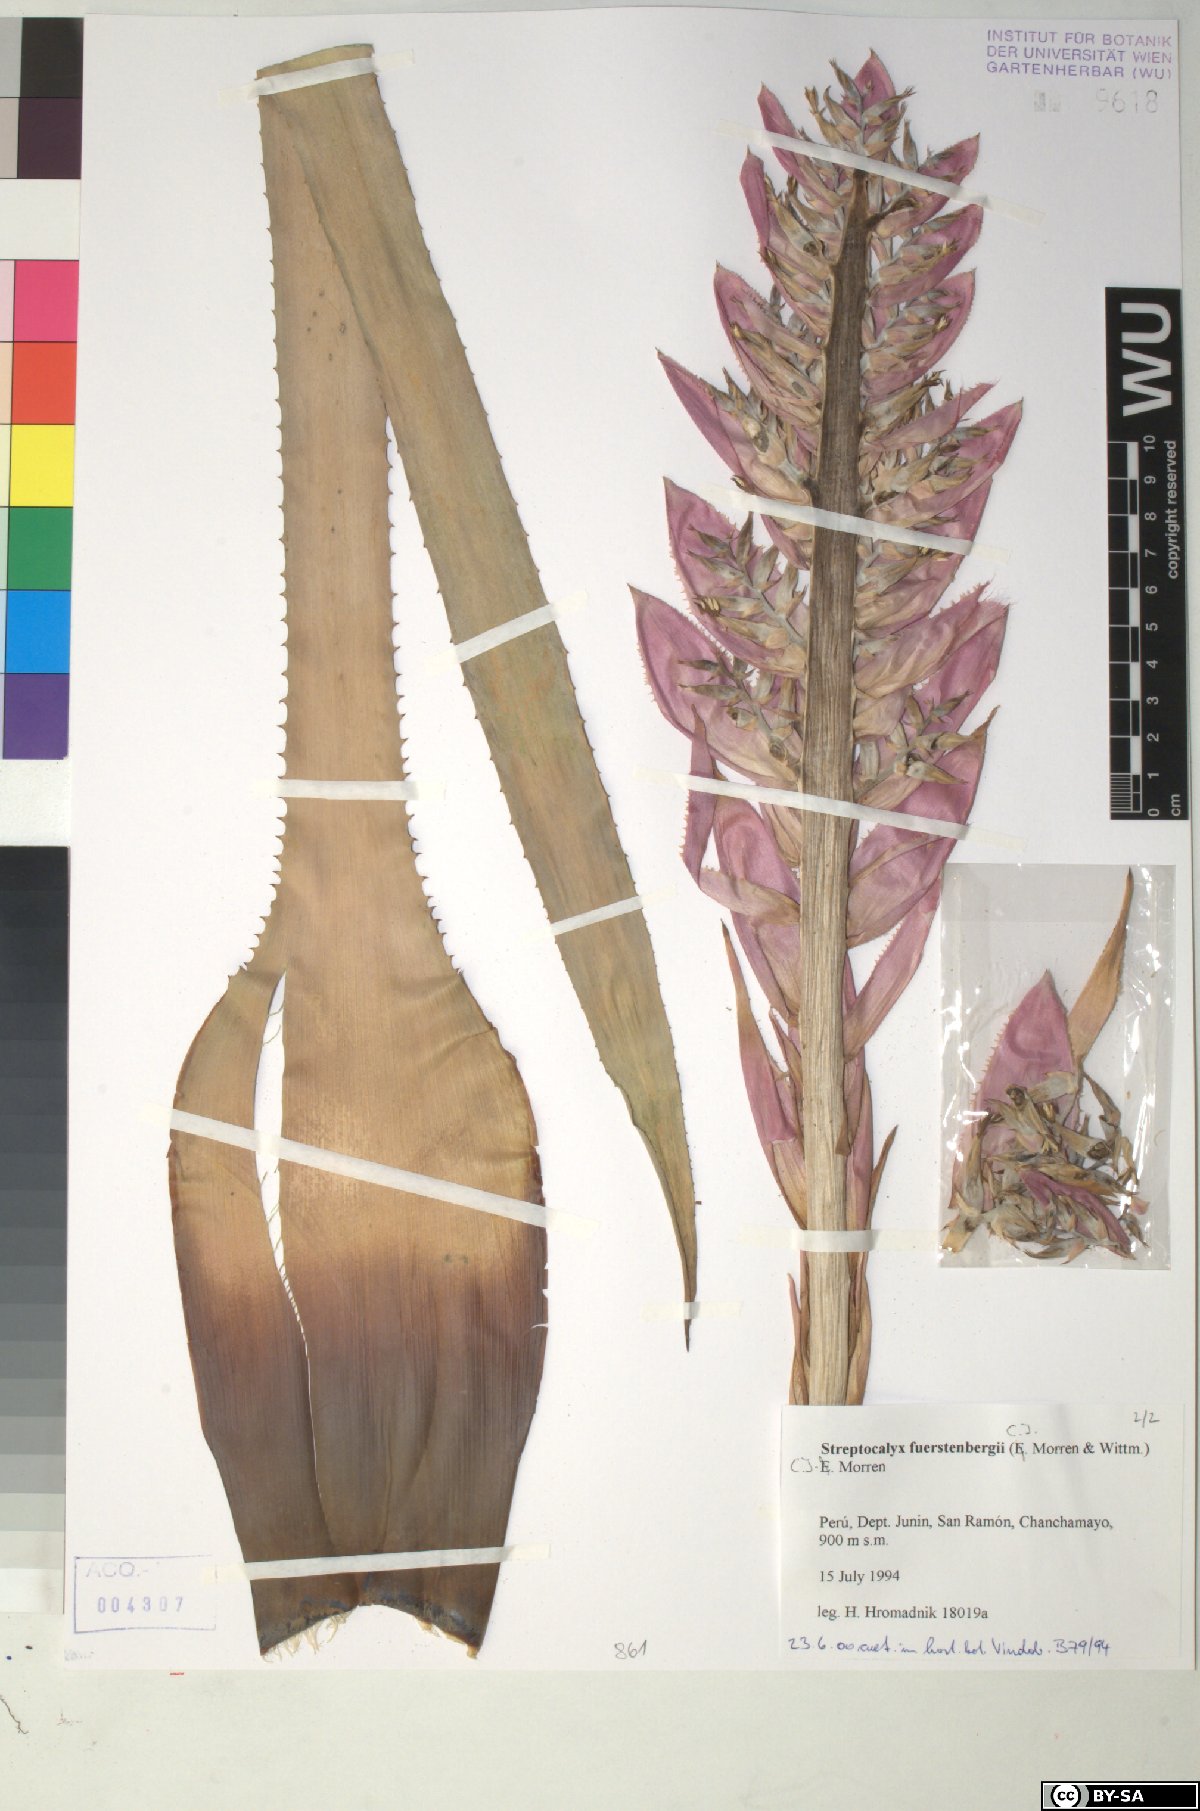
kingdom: Plantae
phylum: Tracheophyta
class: Liliopsida
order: Poales
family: Bromeliaceae
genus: Aechmea
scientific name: Aechmea fuerstenbergii
